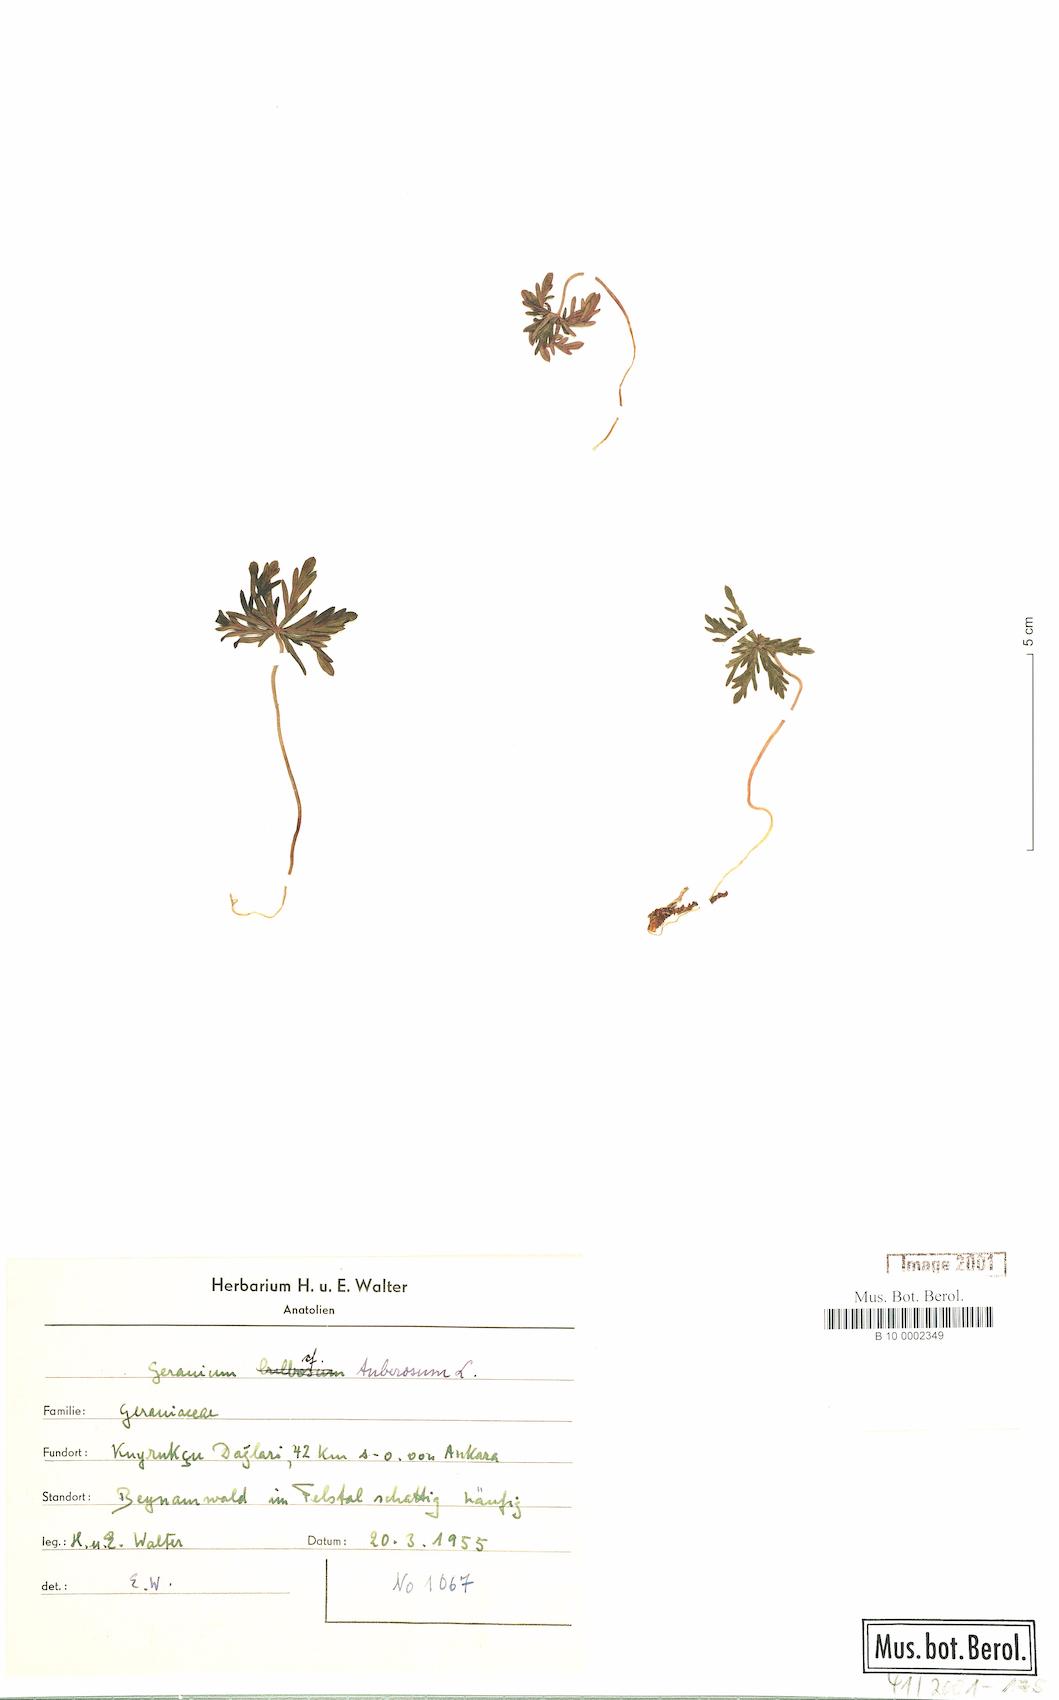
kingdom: Plantae
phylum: Tracheophyta
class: Magnoliopsida
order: Geraniales
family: Geraniaceae
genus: Geranium
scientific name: Geranium tuberosum
